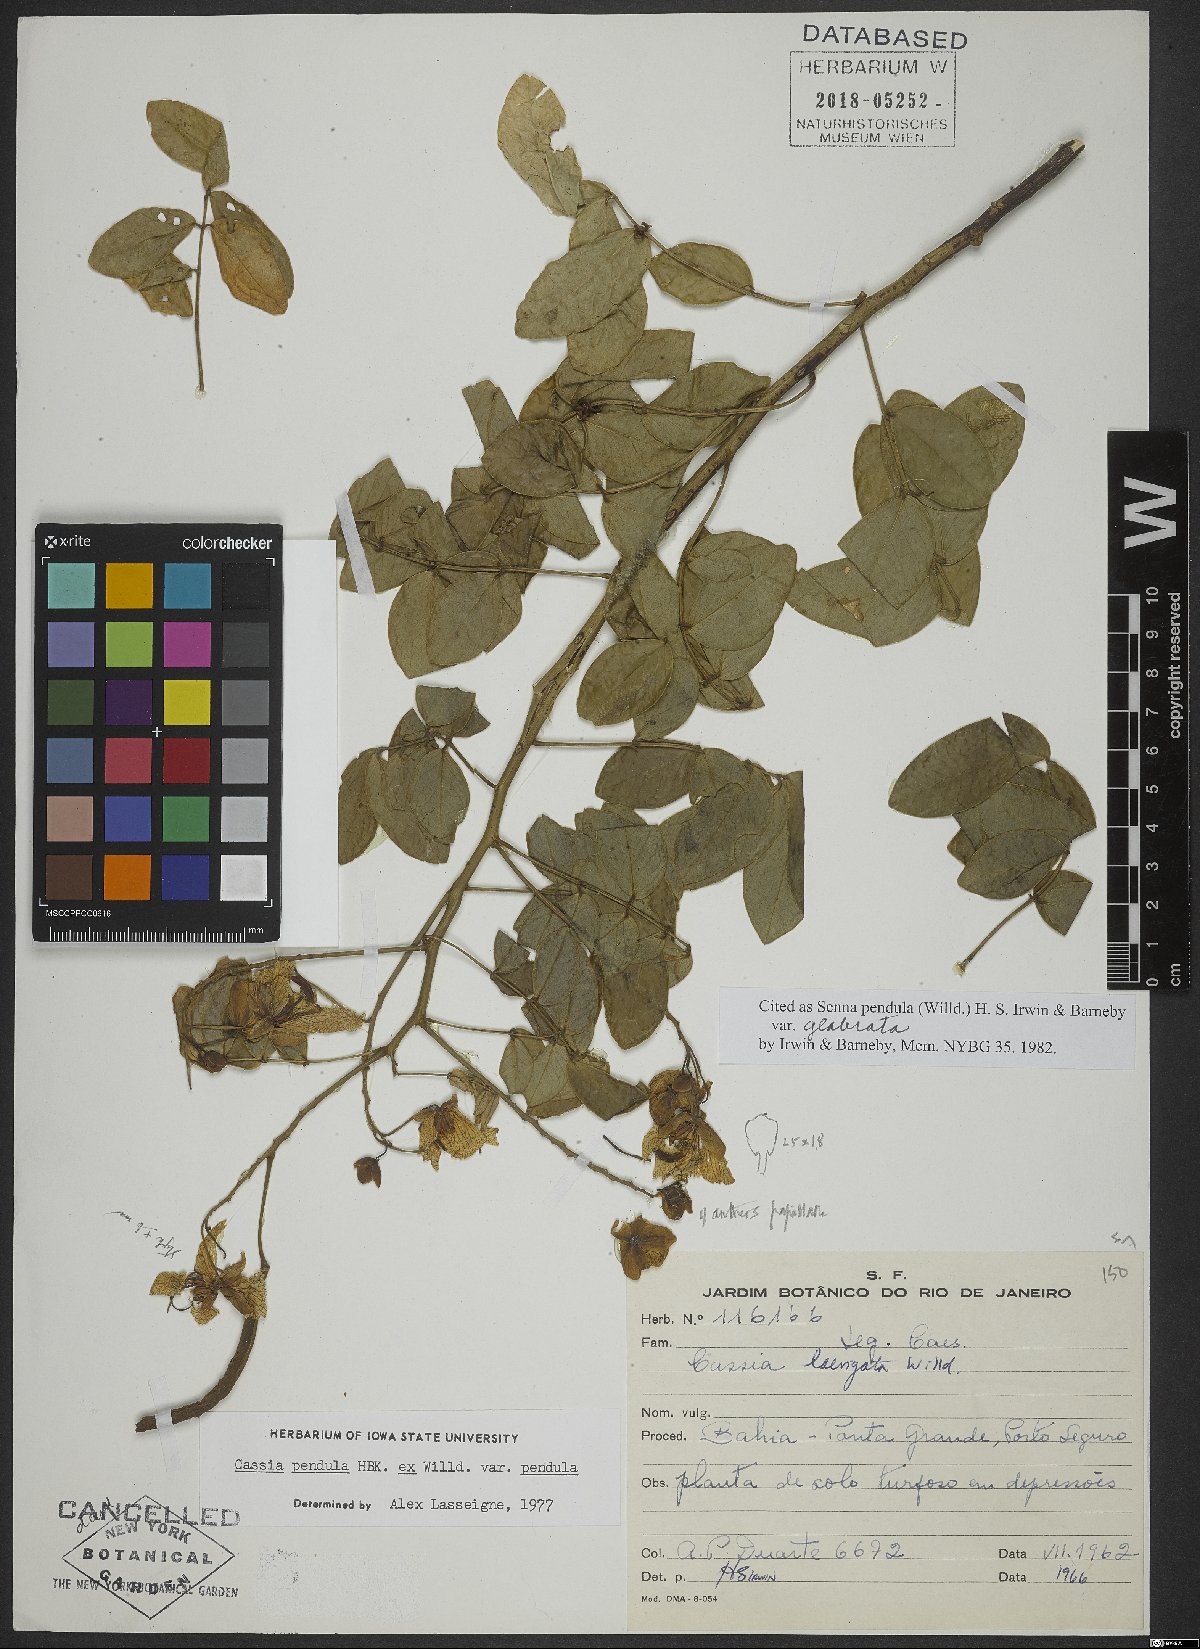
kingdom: Plantae
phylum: Tracheophyta
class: Magnoliopsida
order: Fabales
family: Fabaceae
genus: Senna
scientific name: Senna pendula
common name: Easter cassia
